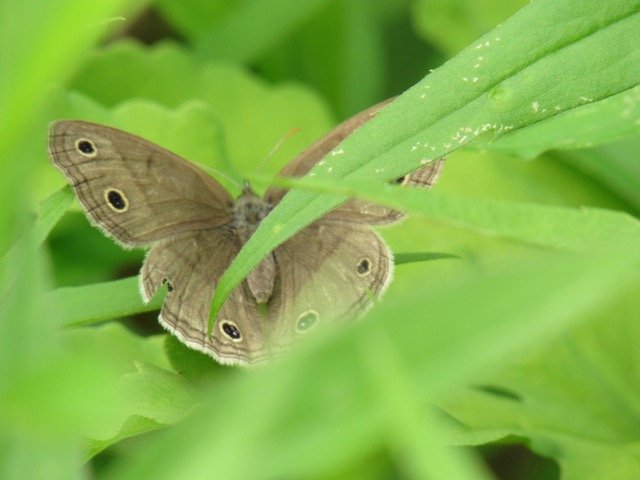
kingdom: Animalia
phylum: Arthropoda
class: Insecta
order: Lepidoptera
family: Nymphalidae
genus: Euptychia
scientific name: Euptychia cymela
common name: Little Wood Satyr
